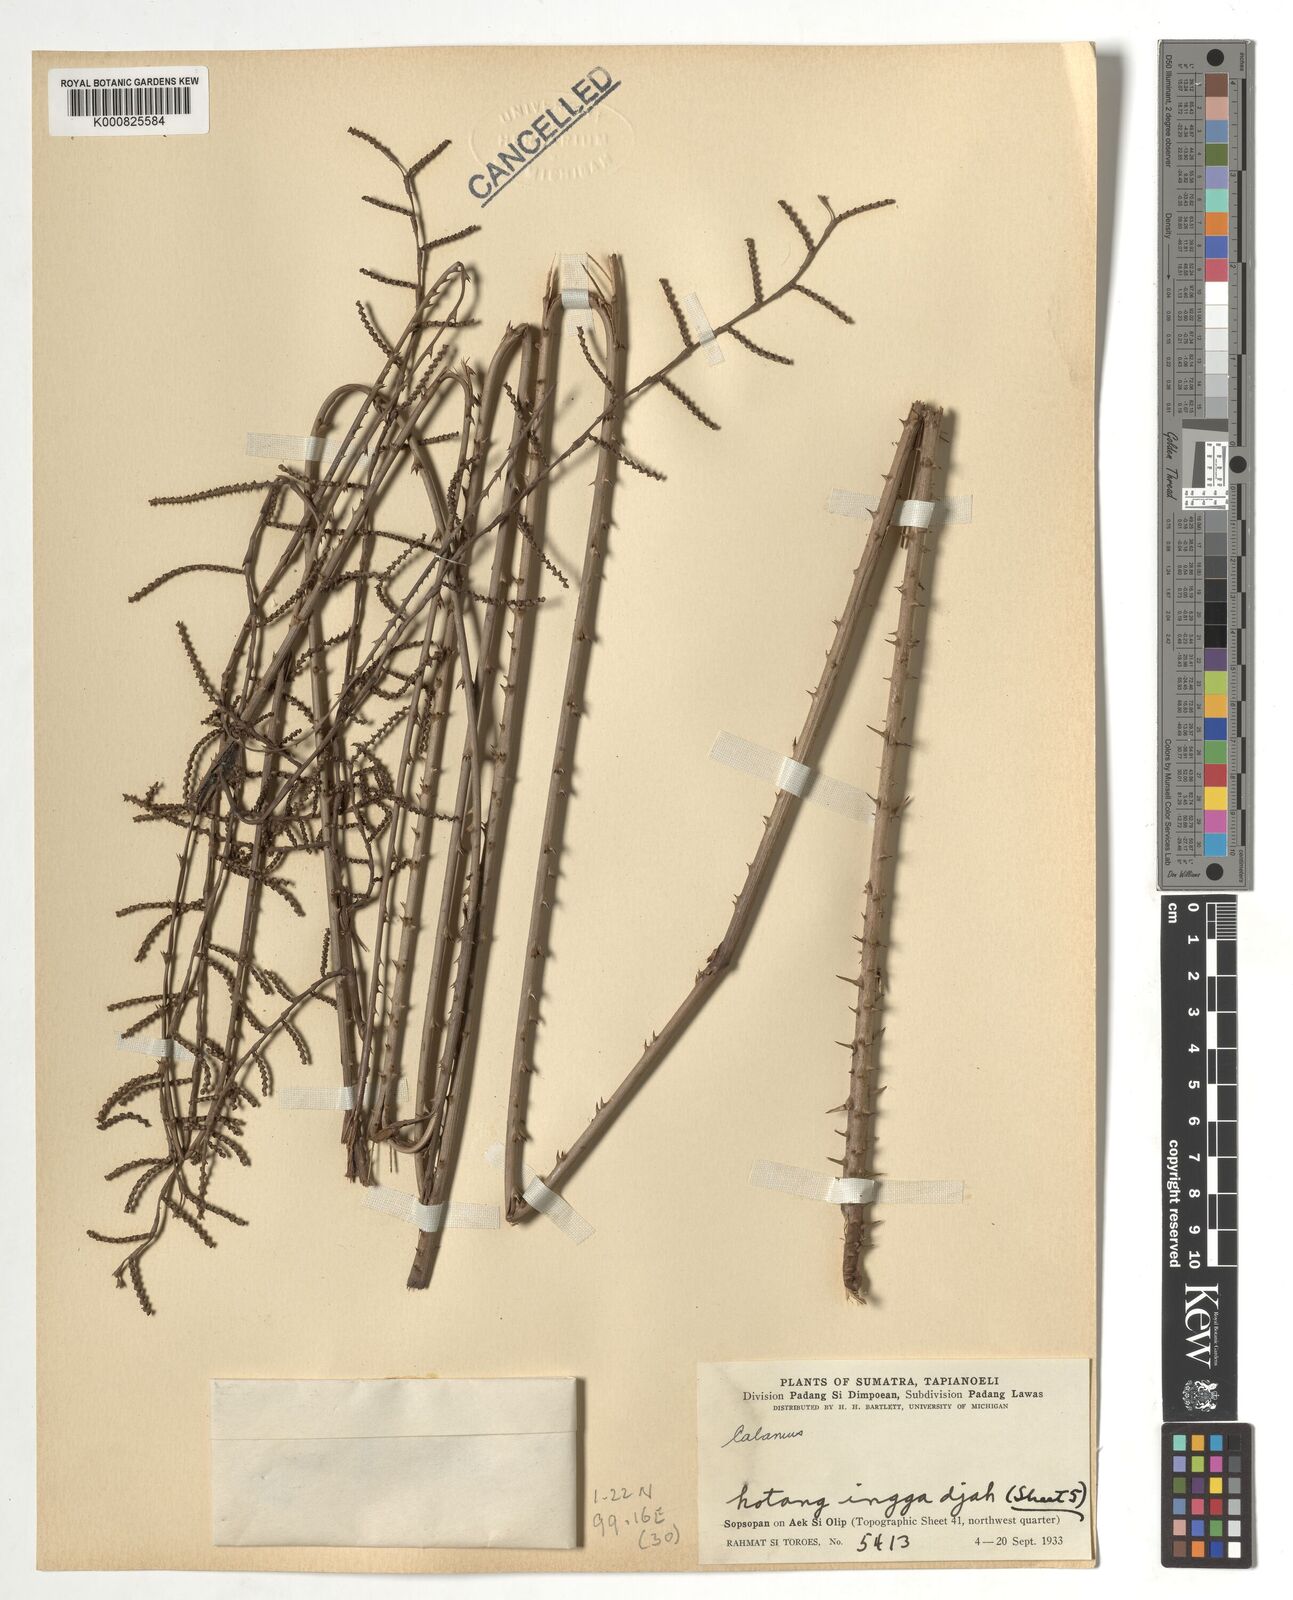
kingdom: Plantae
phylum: Tracheophyta
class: Liliopsida
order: Arecales
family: Arecaceae
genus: Calamus
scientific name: Calamus
